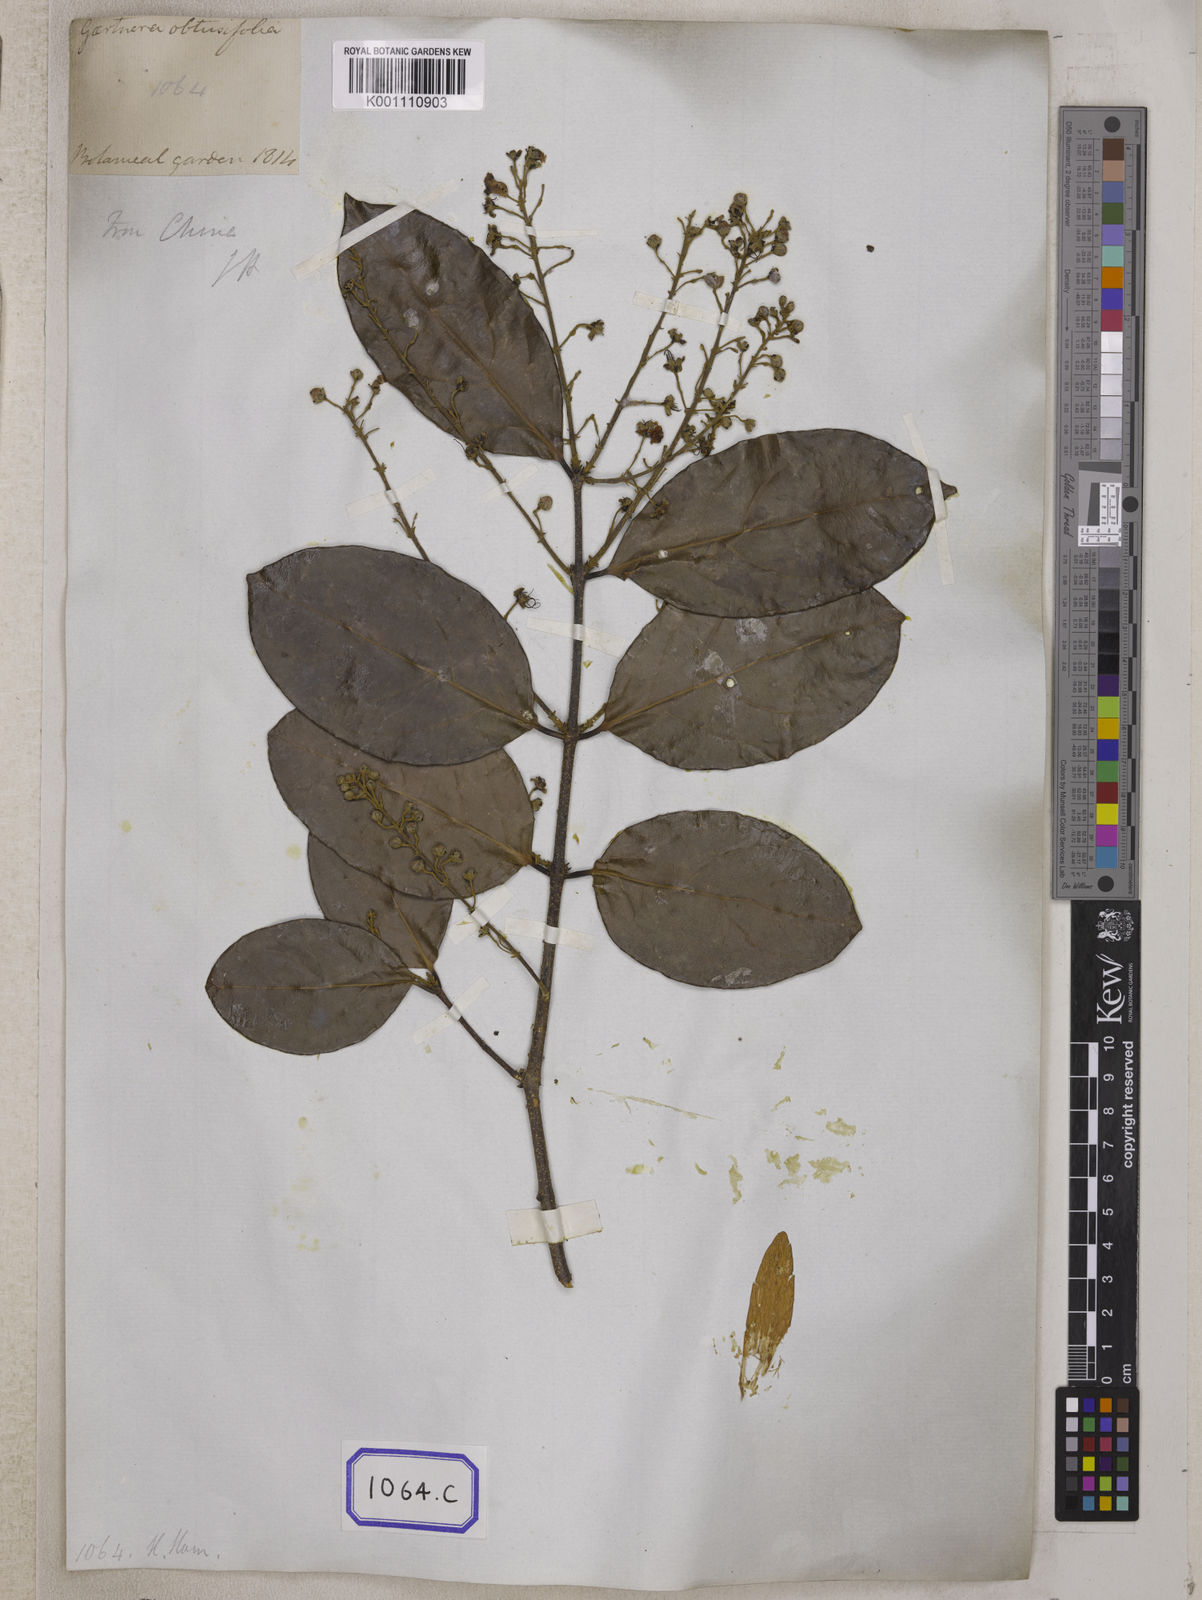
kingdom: Plantae
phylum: Tracheophyta
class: Magnoliopsida
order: Malpighiales
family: Malpighiaceae
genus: Hiptage
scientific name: Hiptage benghalensis
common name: Hiptage
